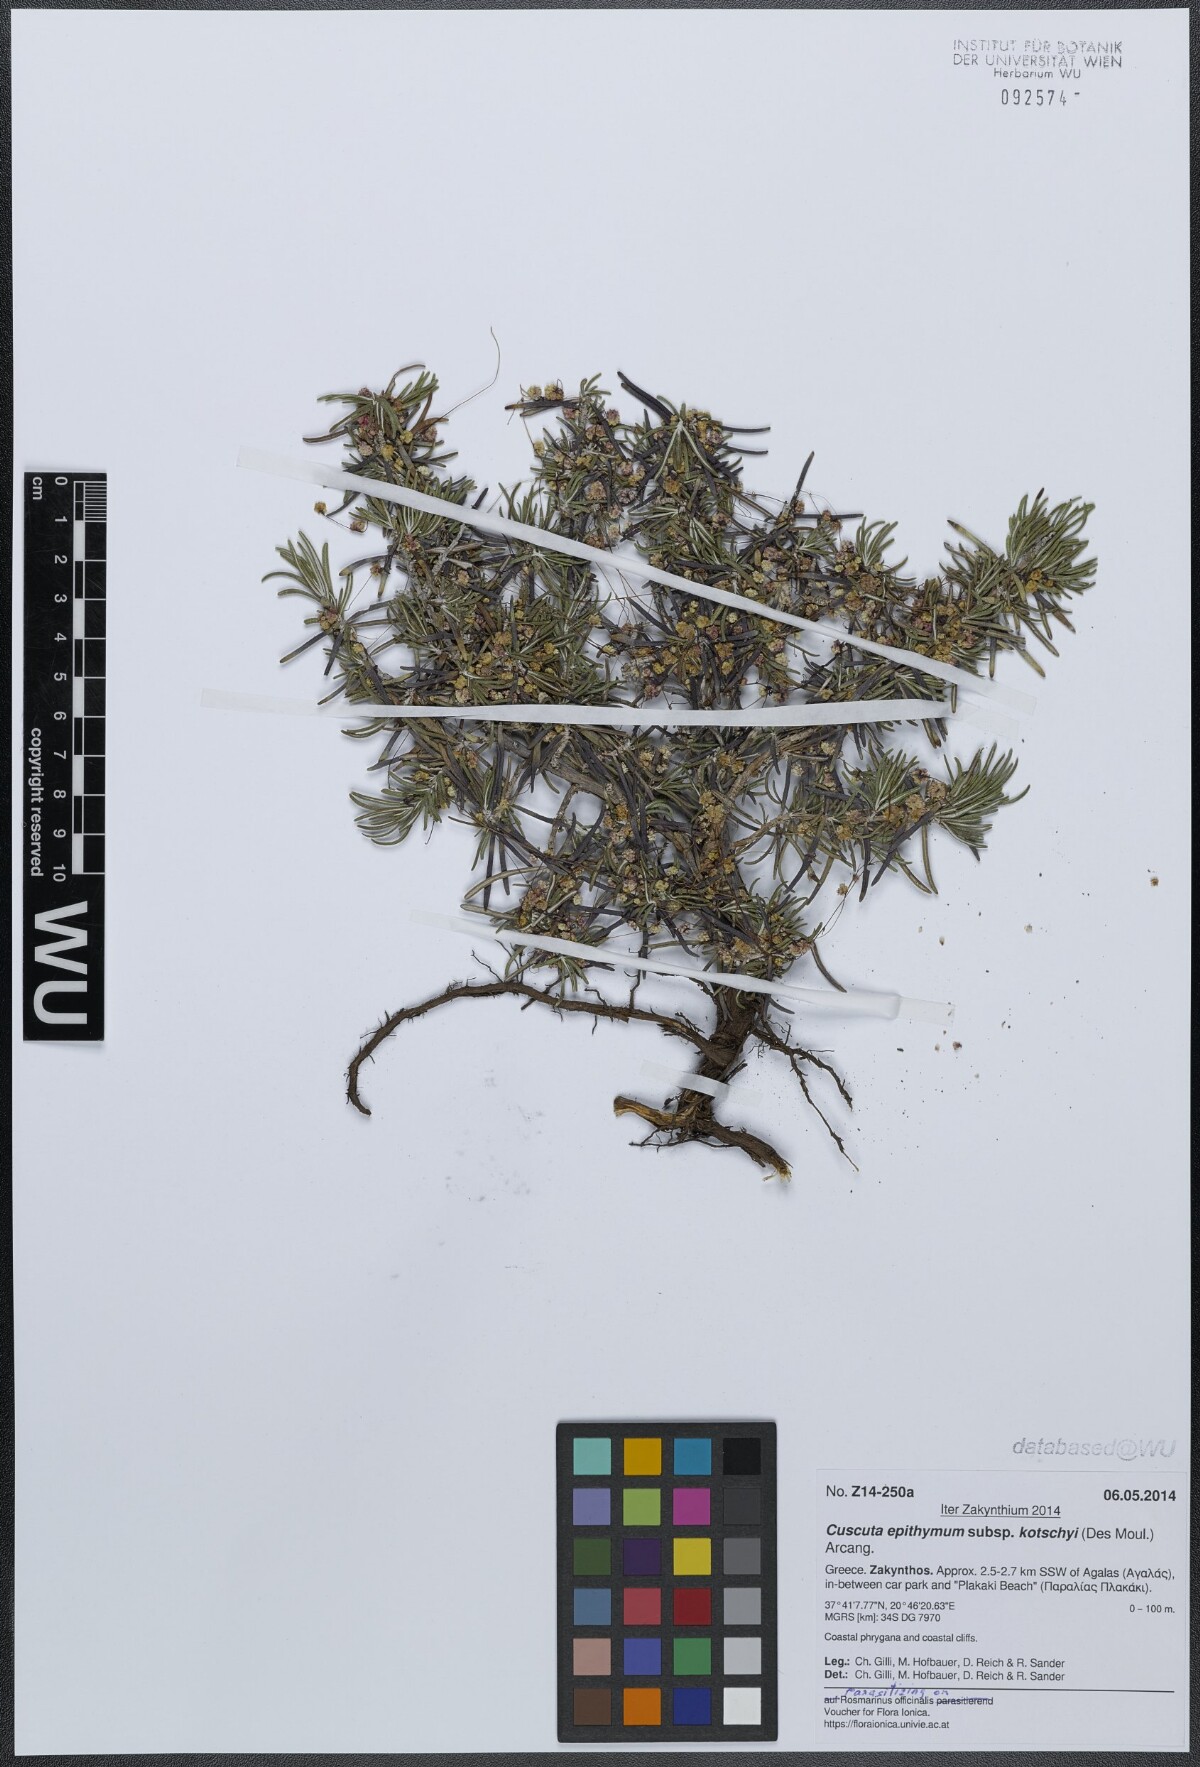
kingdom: Plantae
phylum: Tracheophyta
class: Magnoliopsida
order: Solanales
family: Convolvulaceae
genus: Cuscuta
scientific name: Cuscuta epithymum
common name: Clover dodder
